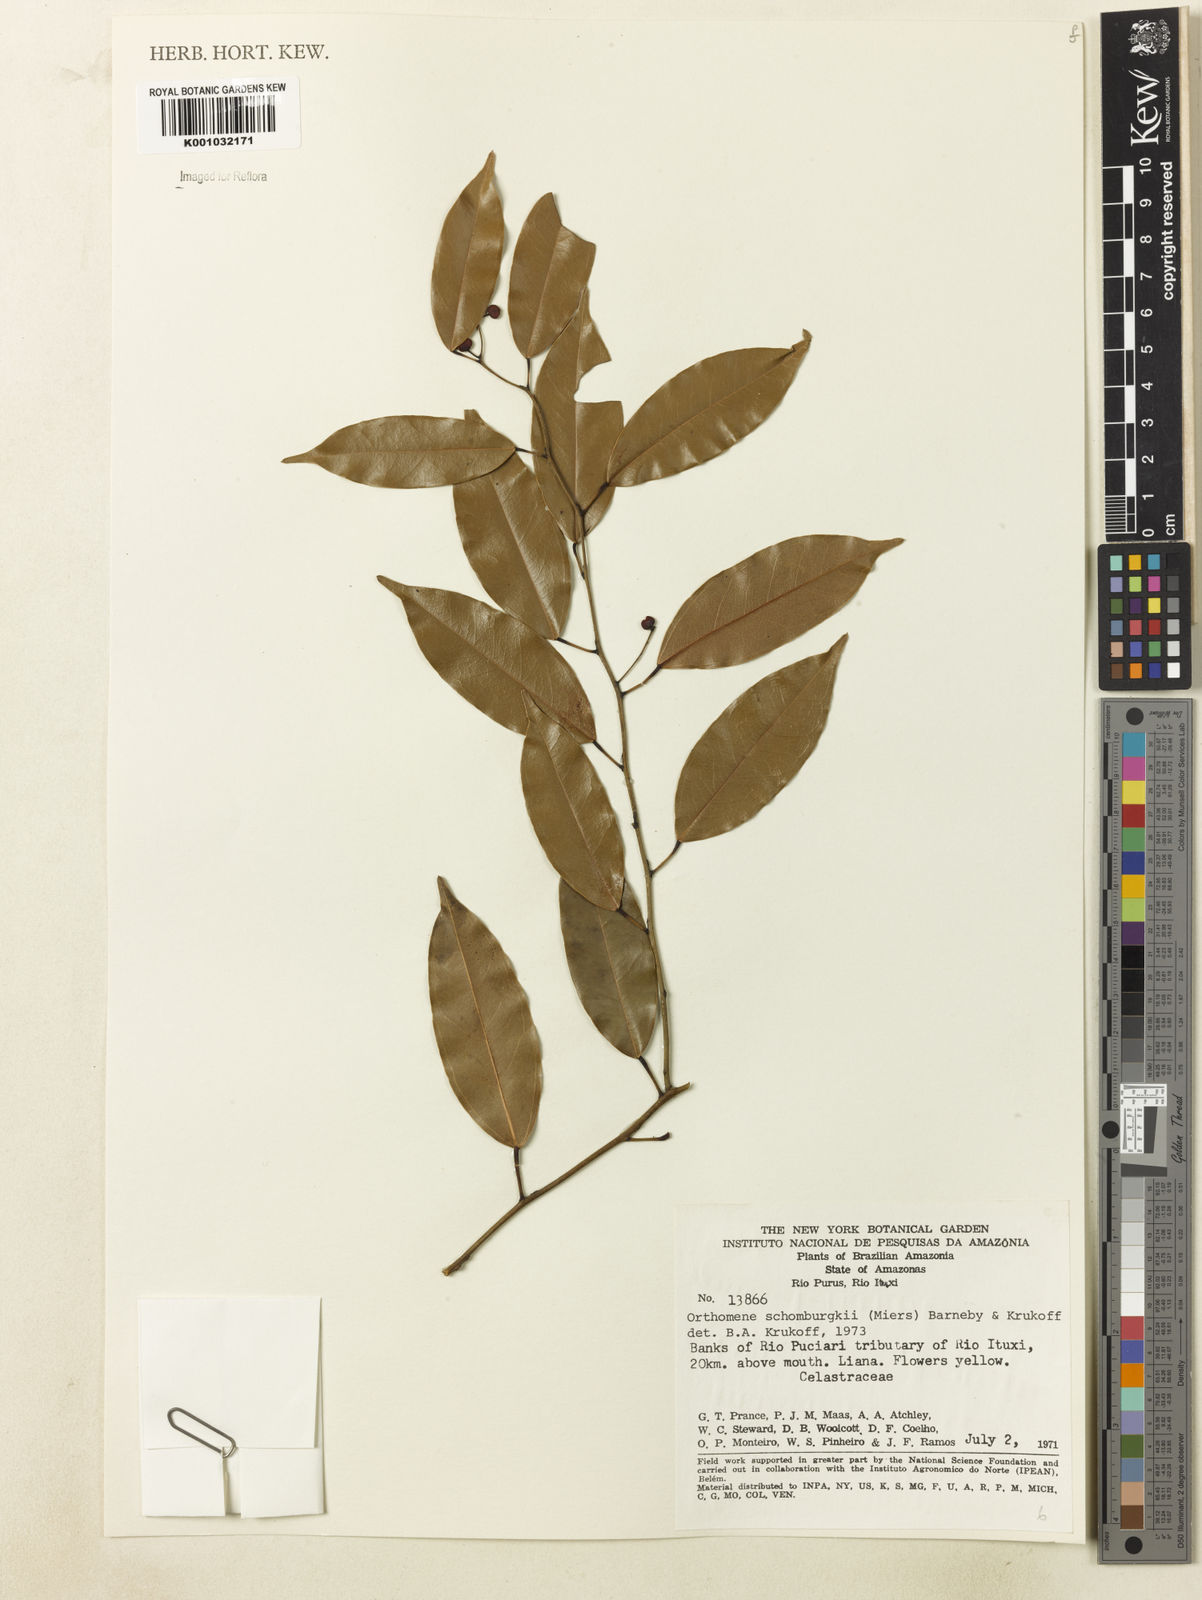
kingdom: Plantae
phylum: Tracheophyta
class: Magnoliopsida
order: Ranunculales
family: Menispermaceae
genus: Orthomene
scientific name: Orthomene schomburgkii
